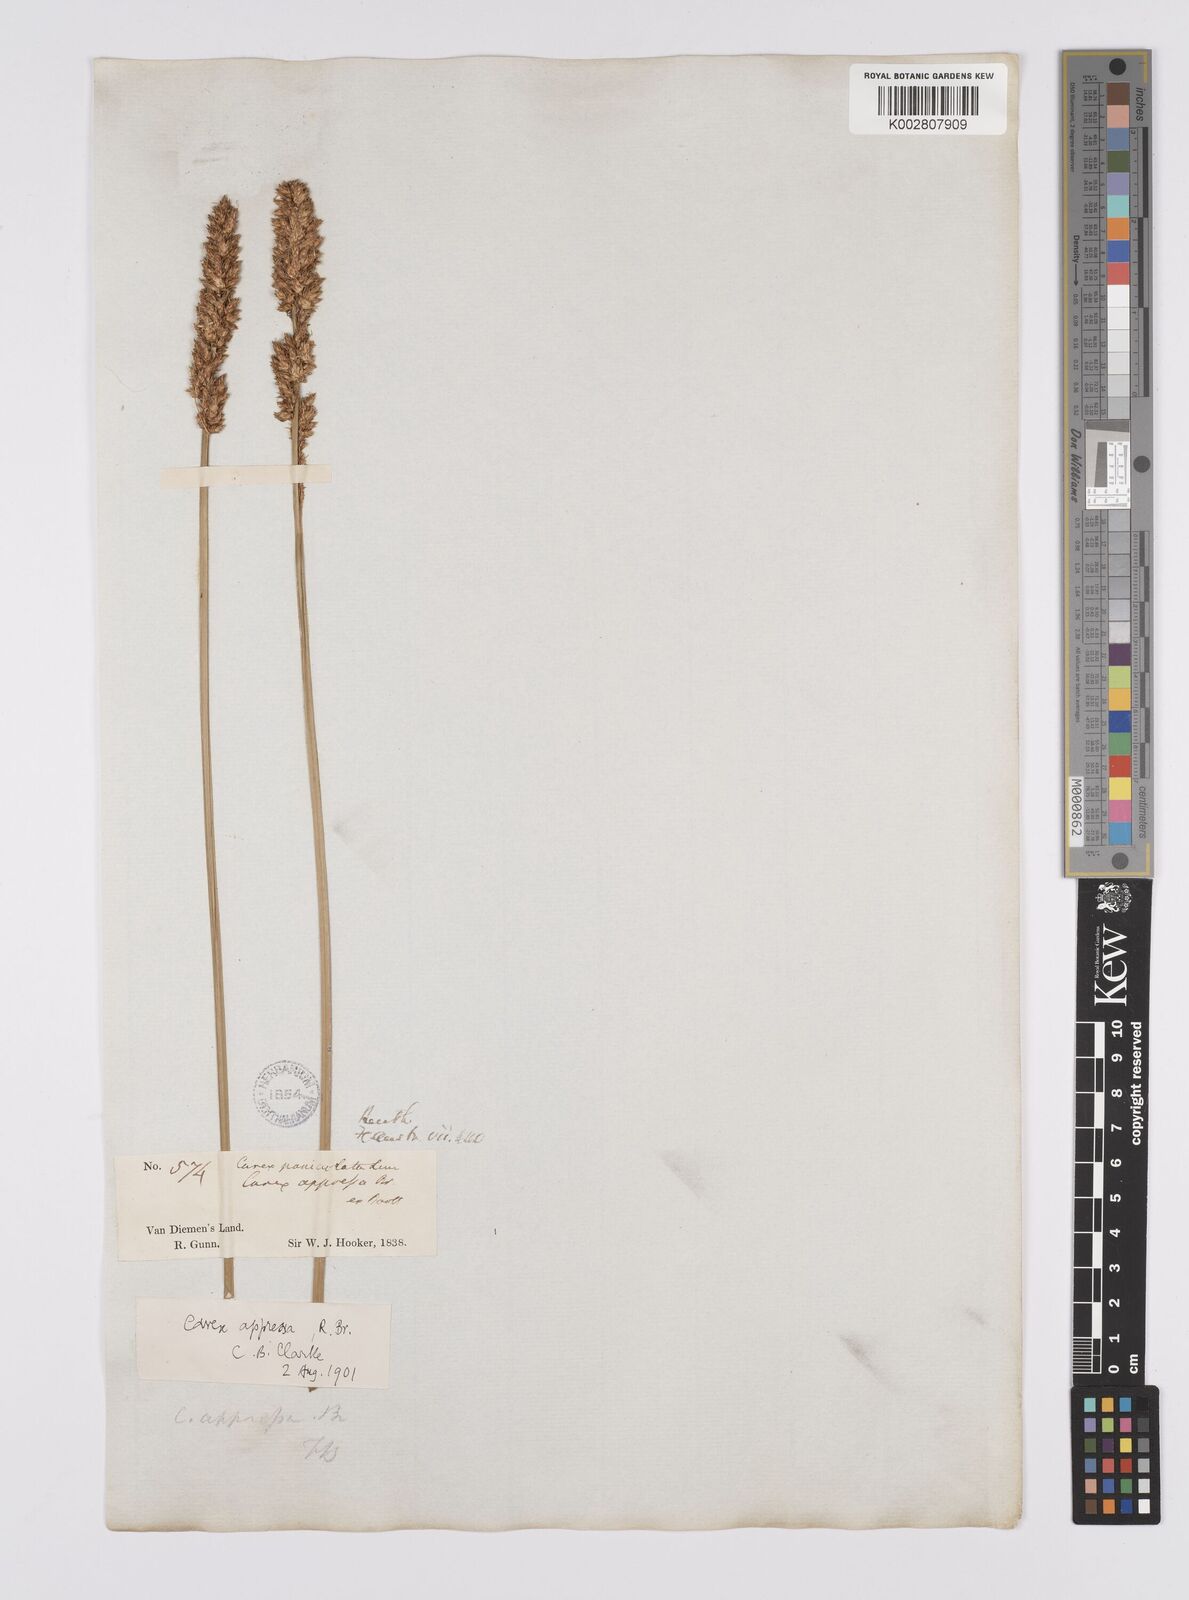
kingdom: Plantae
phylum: Tracheophyta
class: Liliopsida
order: Poales
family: Cyperaceae
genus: Carex
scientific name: Carex appressa
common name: Tussock sedge
